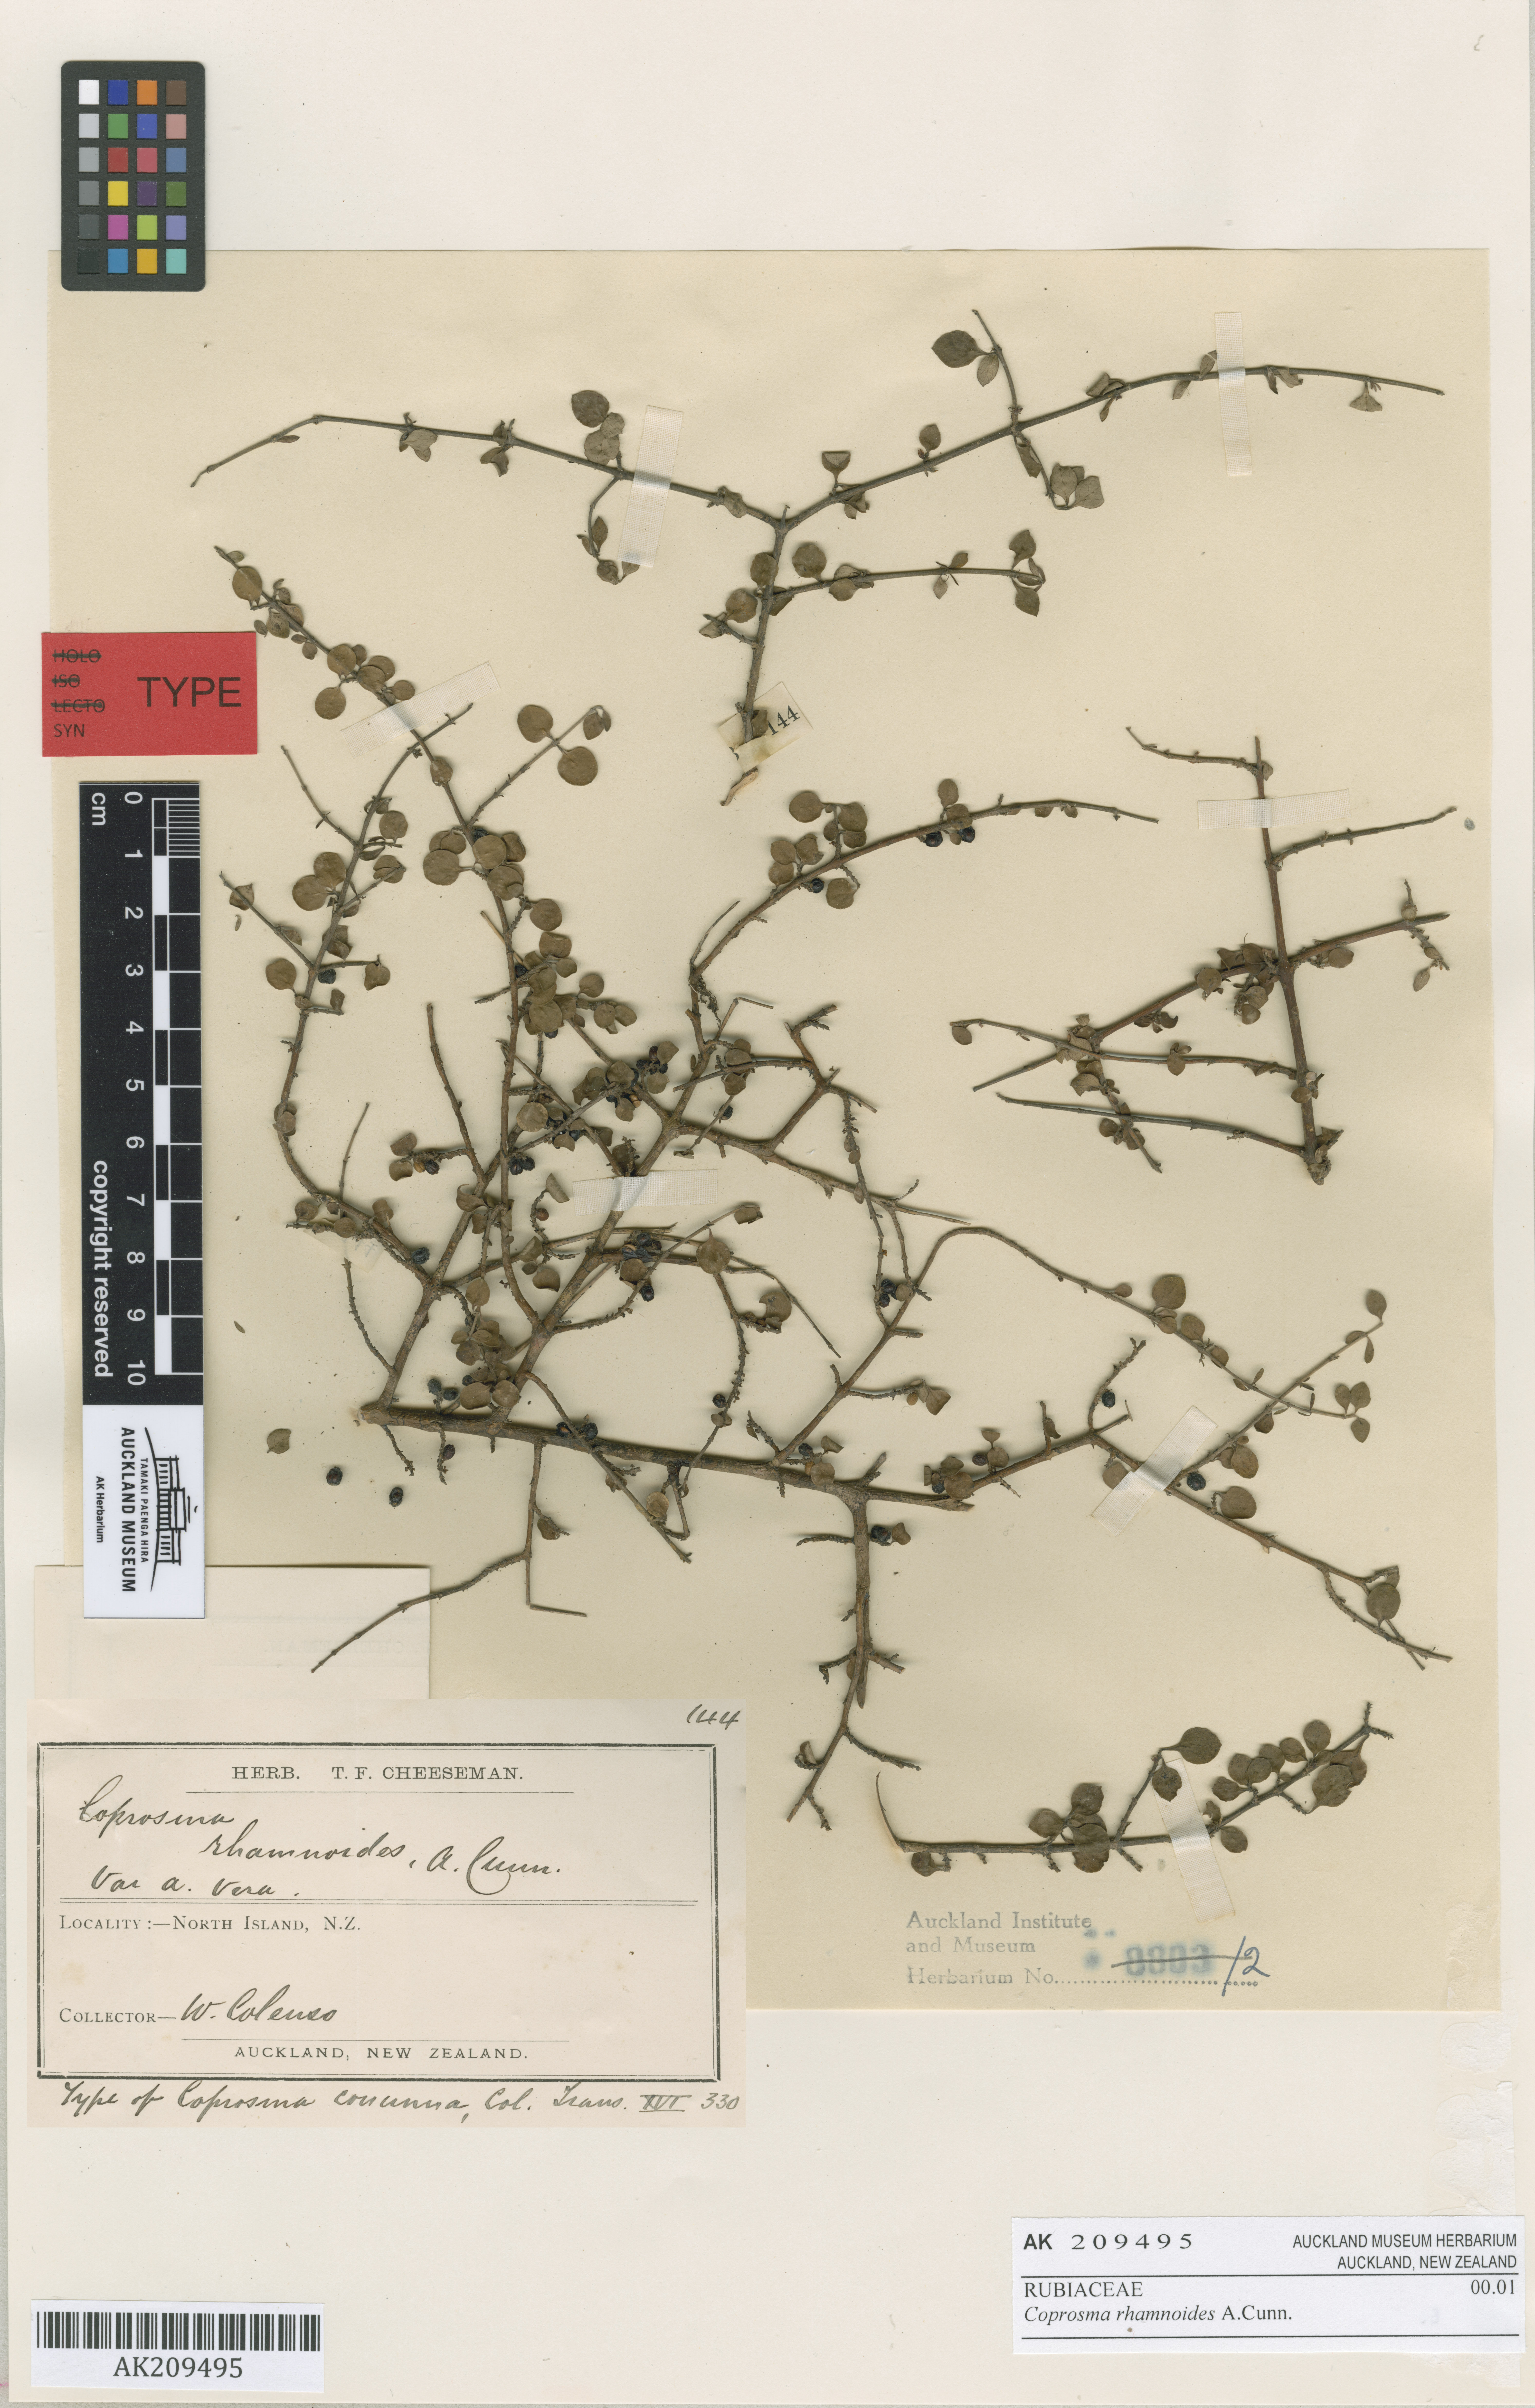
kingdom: Plantae
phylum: Tracheophyta
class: Magnoliopsida
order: Gentianales
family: Rubiaceae
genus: Coprosma
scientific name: Coprosma rhamnoides
